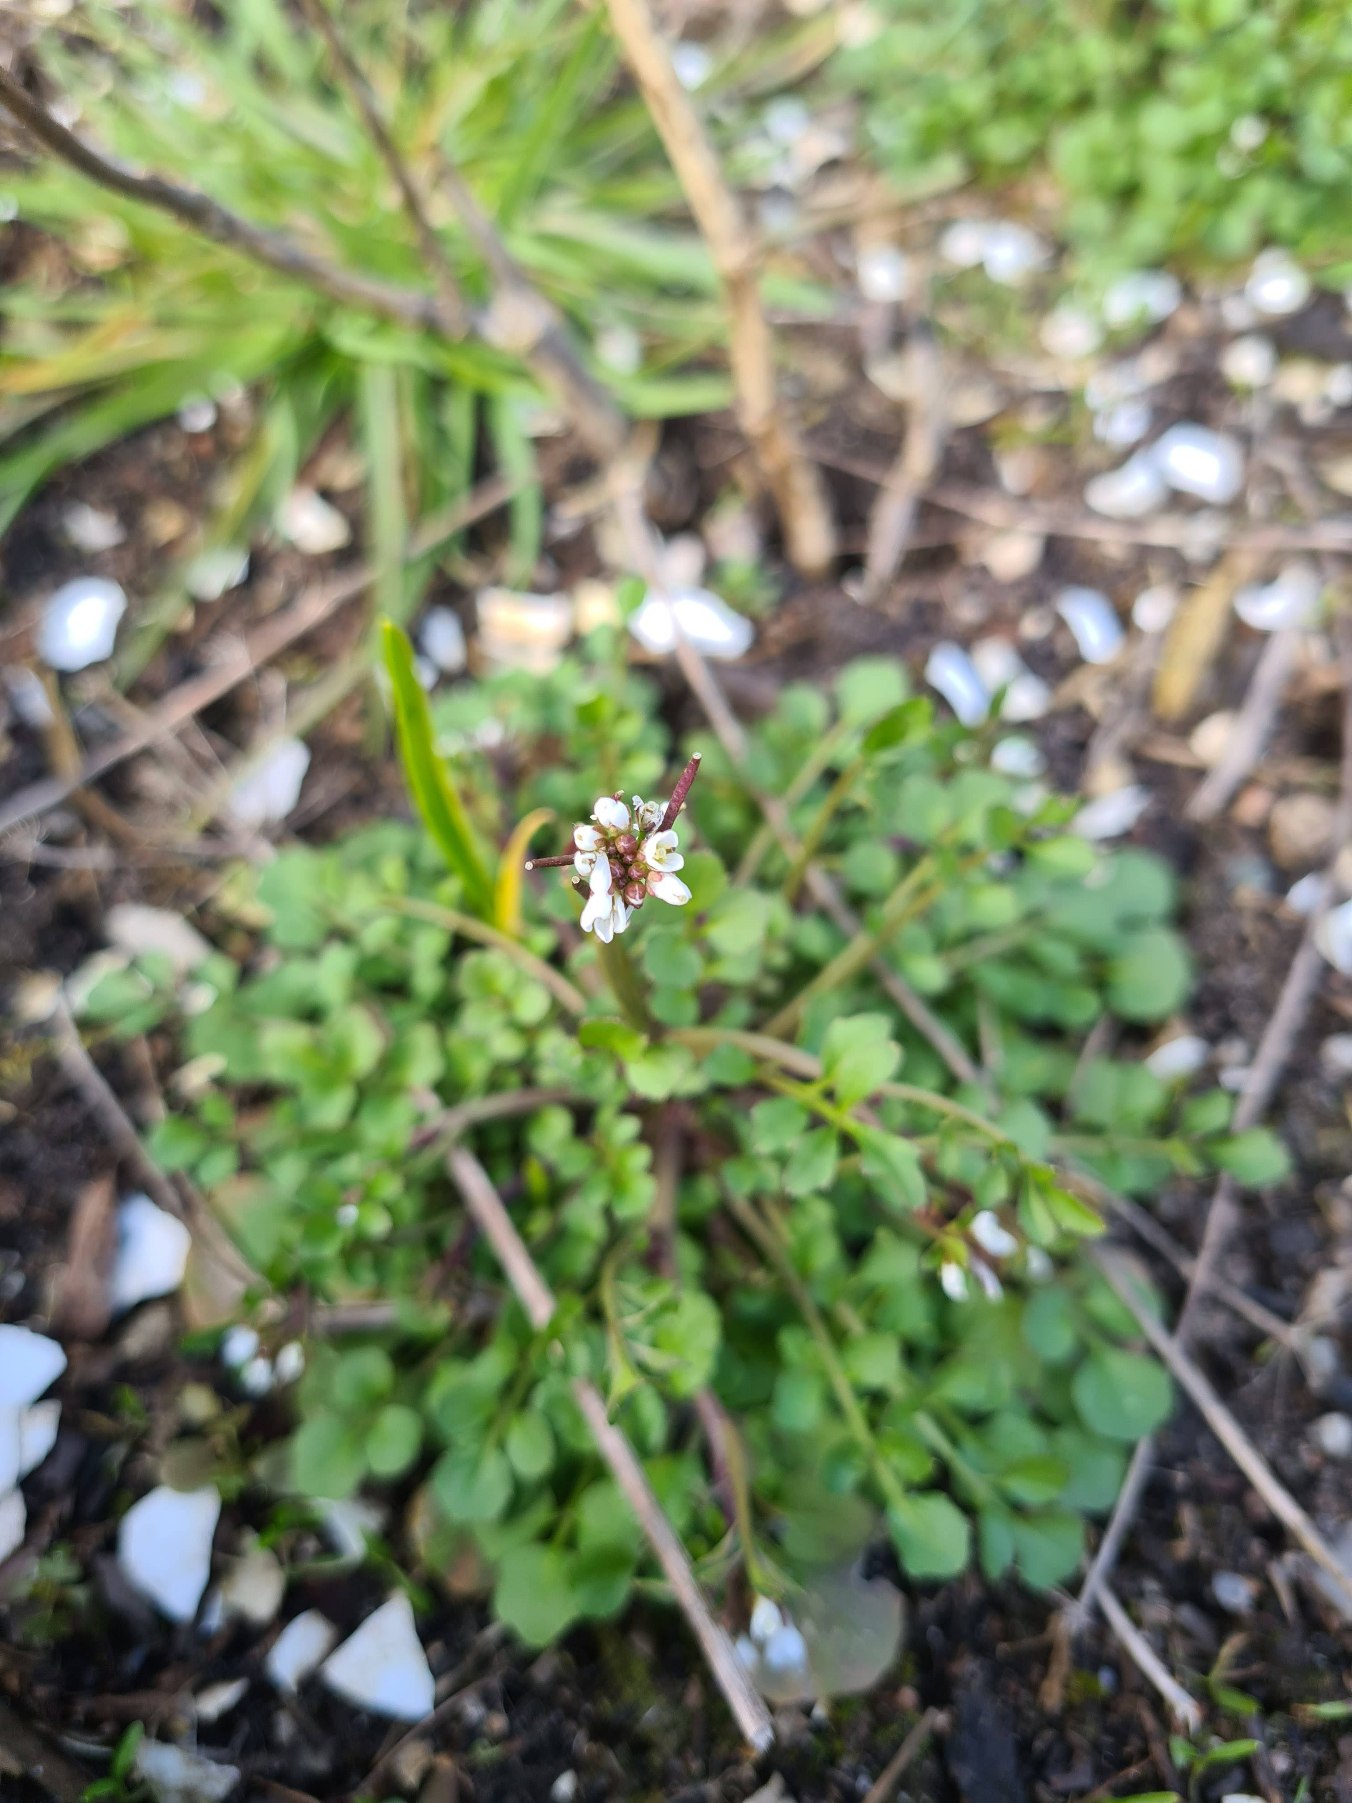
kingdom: Plantae
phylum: Tracheophyta
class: Magnoliopsida
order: Brassicales
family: Brassicaceae
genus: Cardamine
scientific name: Cardamine hirsuta
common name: Roset-springklap
